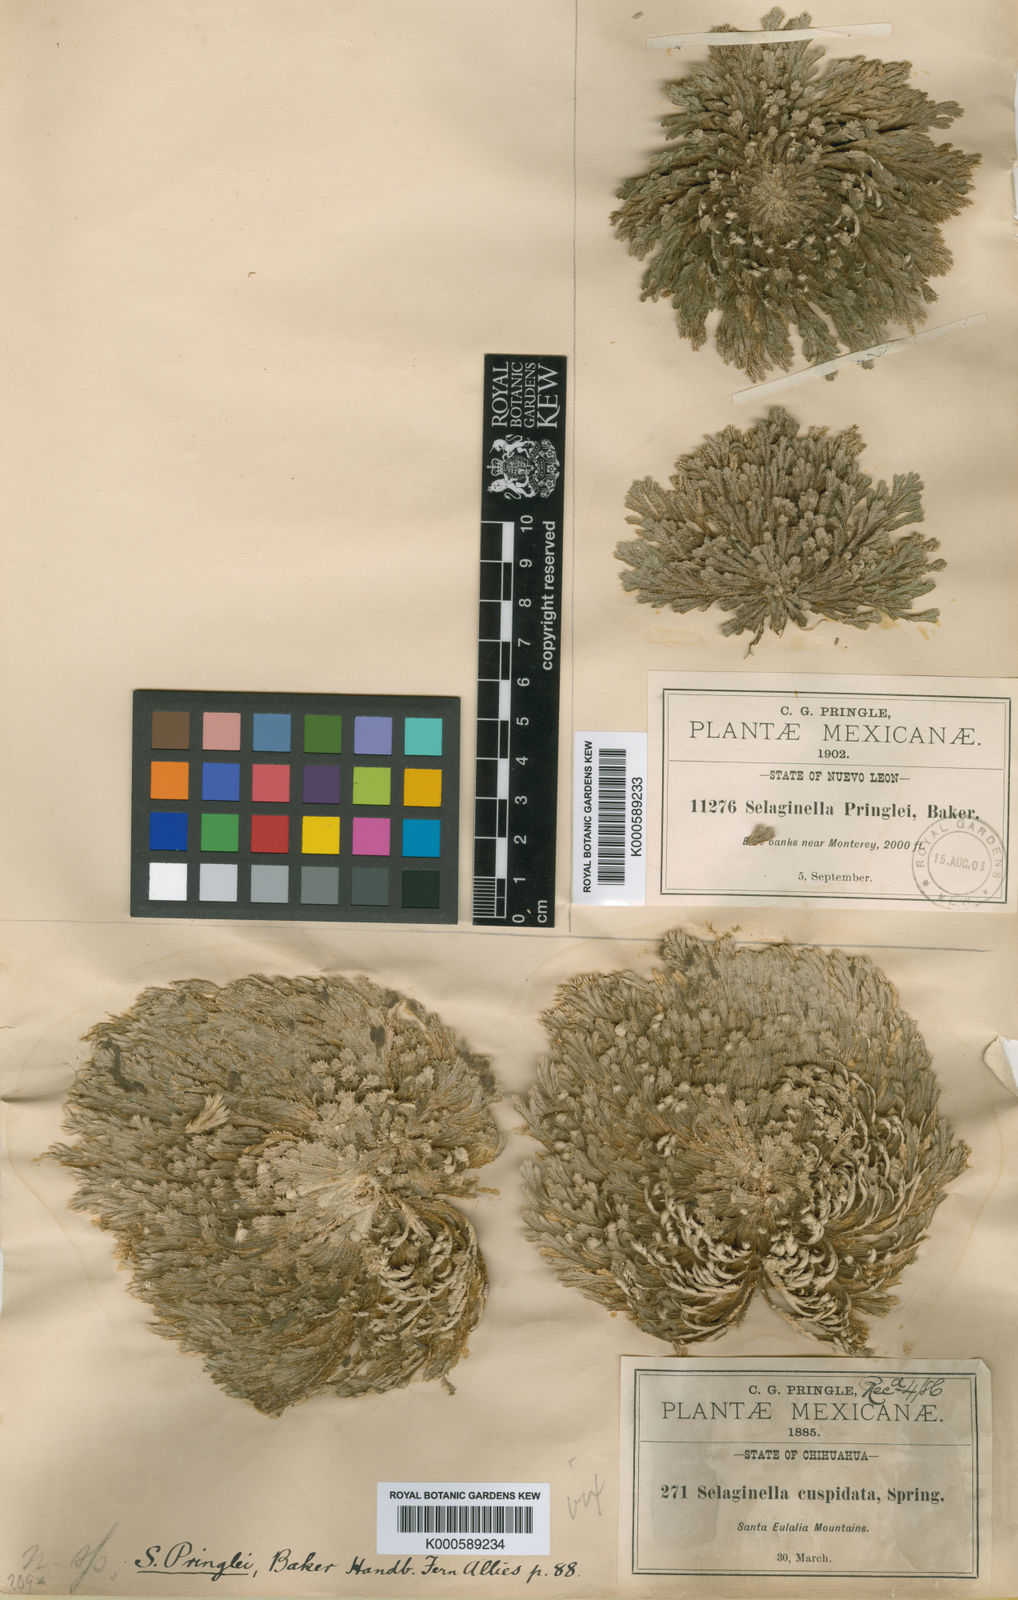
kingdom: Plantae
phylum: Tracheophyta
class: Lycopodiopsida
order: Selaginellales
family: Selaginellaceae
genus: Selaginella
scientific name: Selaginella pilifera
